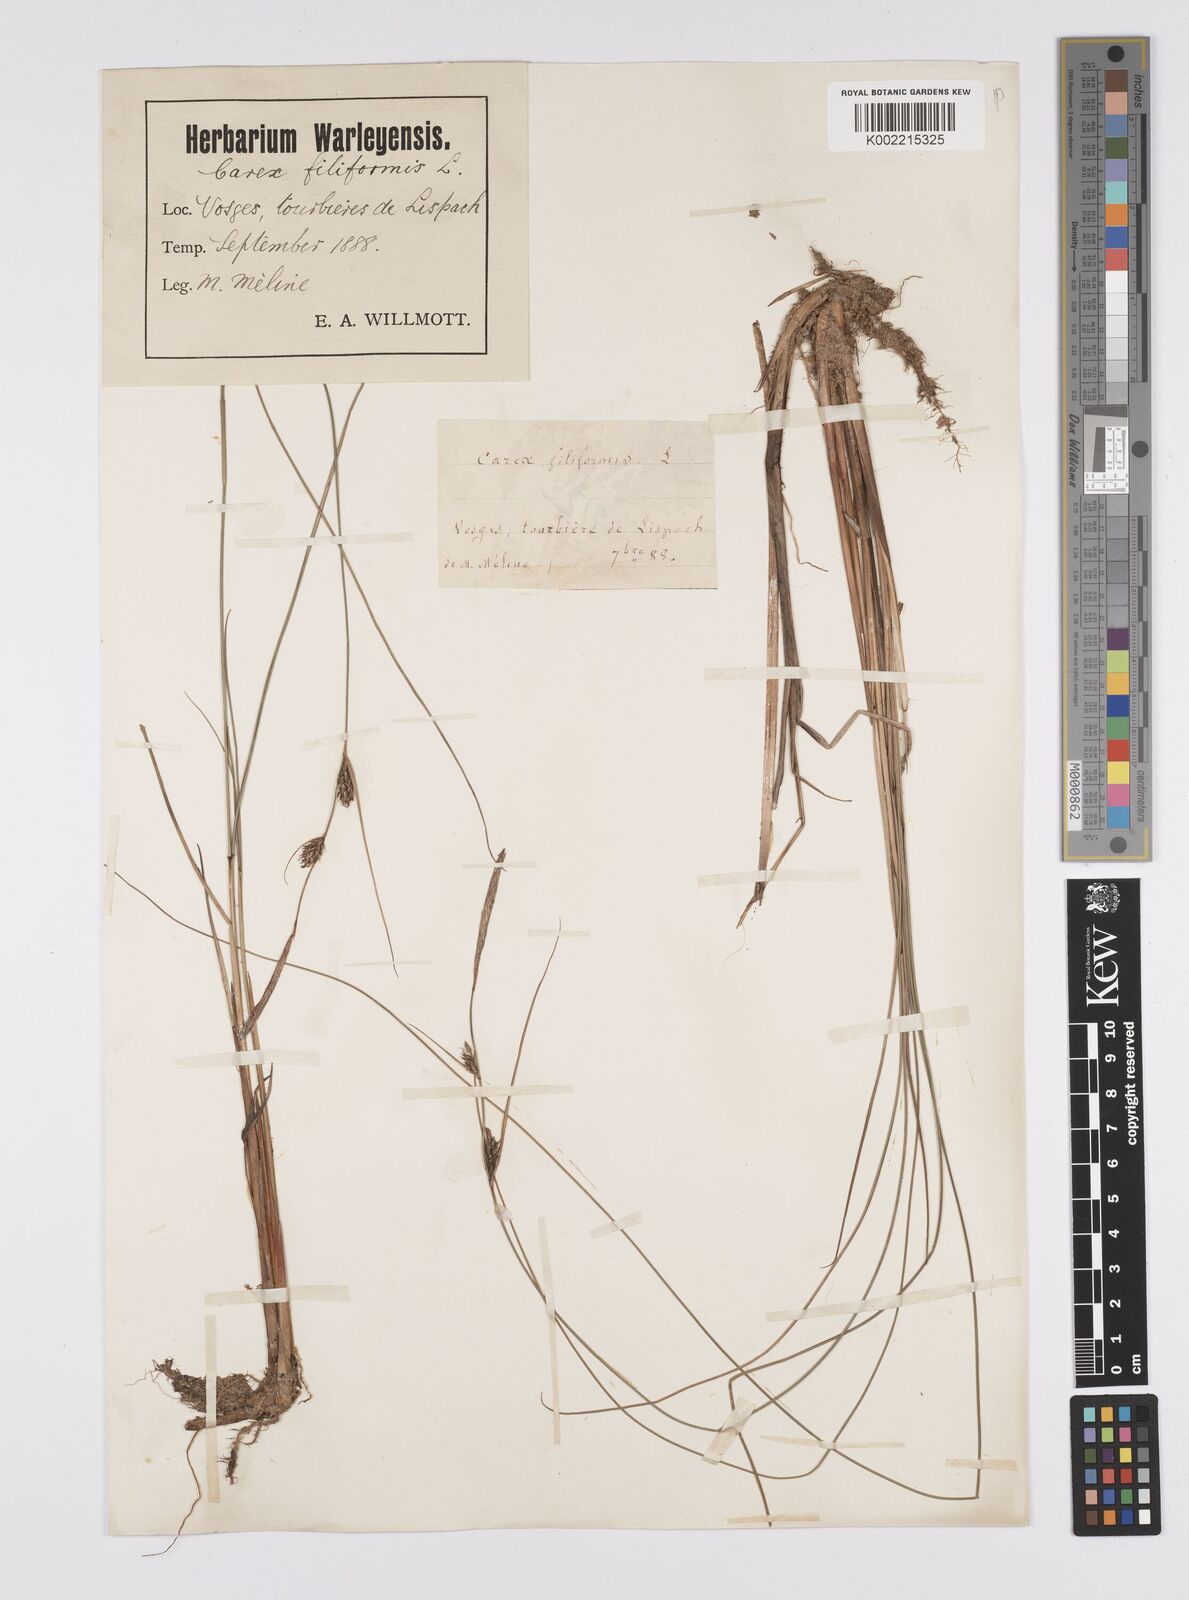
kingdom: Plantae
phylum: Tracheophyta
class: Liliopsida
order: Poales
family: Cyperaceae
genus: Carex
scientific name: Carex lasiocarpa
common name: Slender sedge
